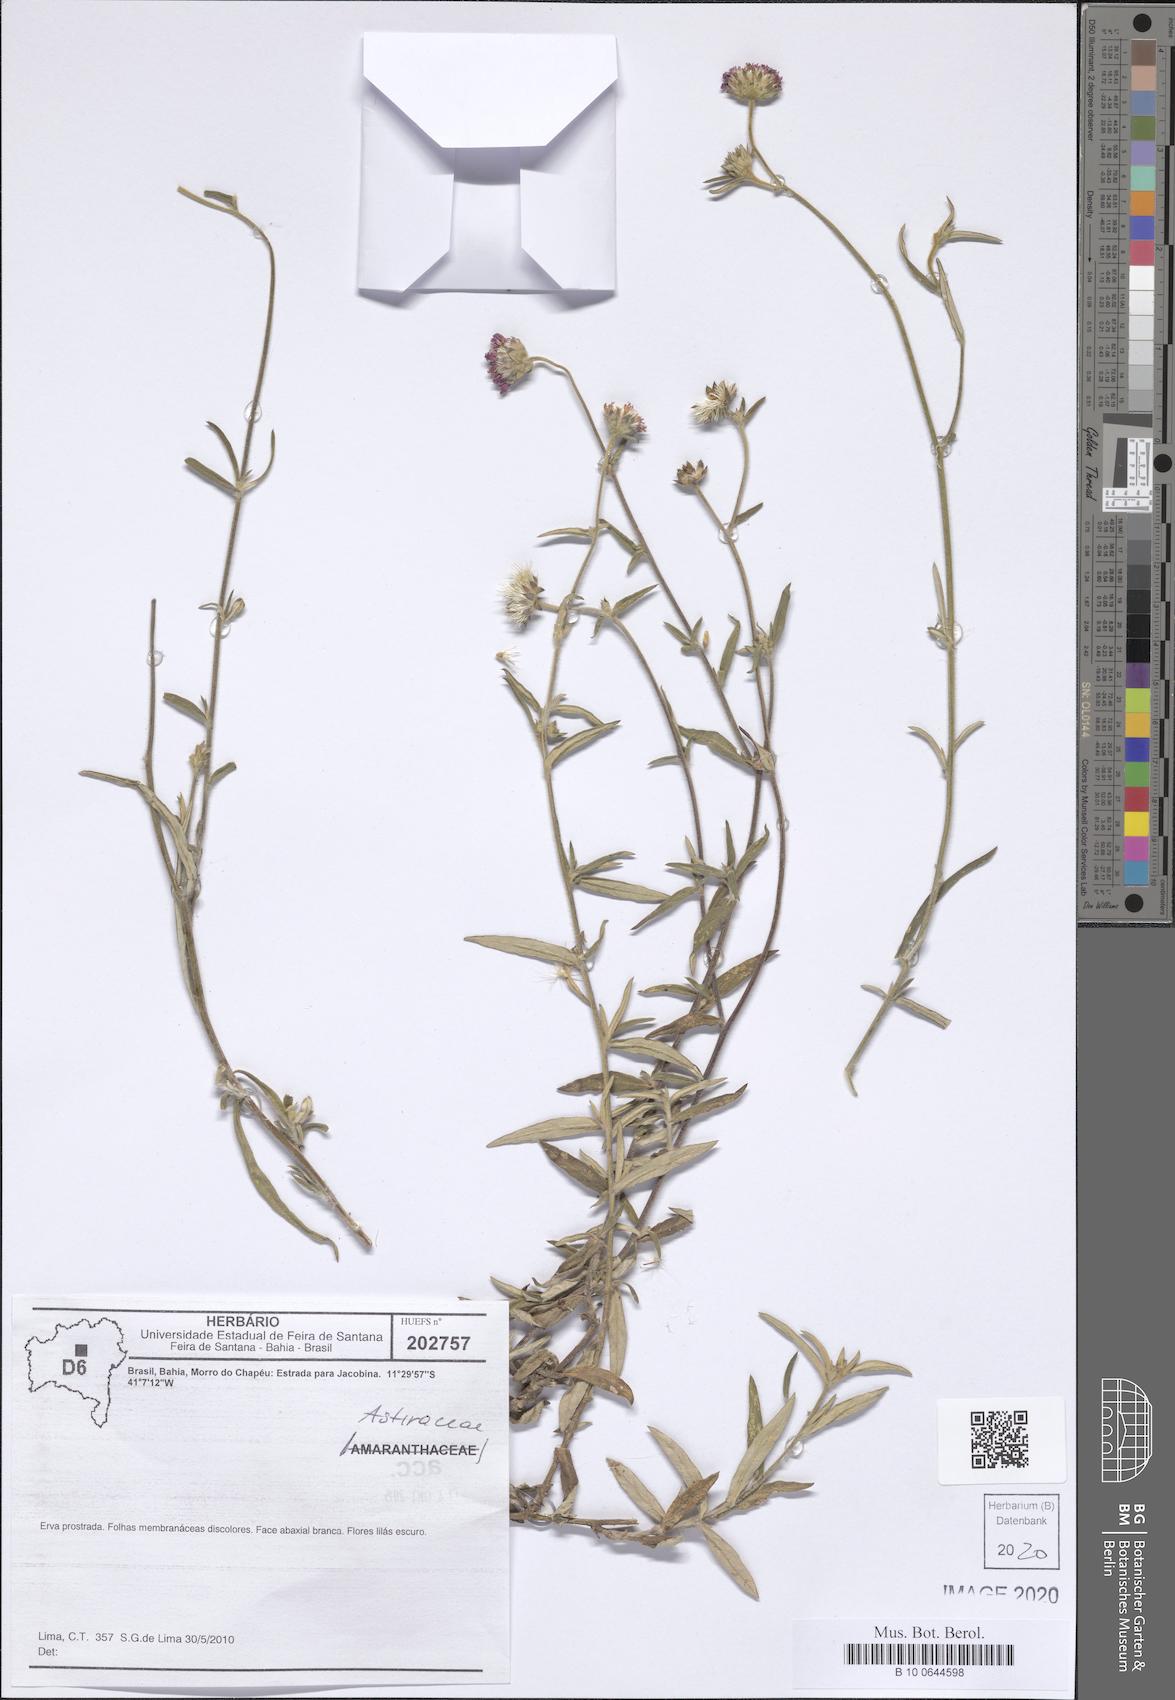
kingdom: Plantae
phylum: Tracheophyta
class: Magnoliopsida
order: Asterales
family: Asteraceae
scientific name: Asteraceae
